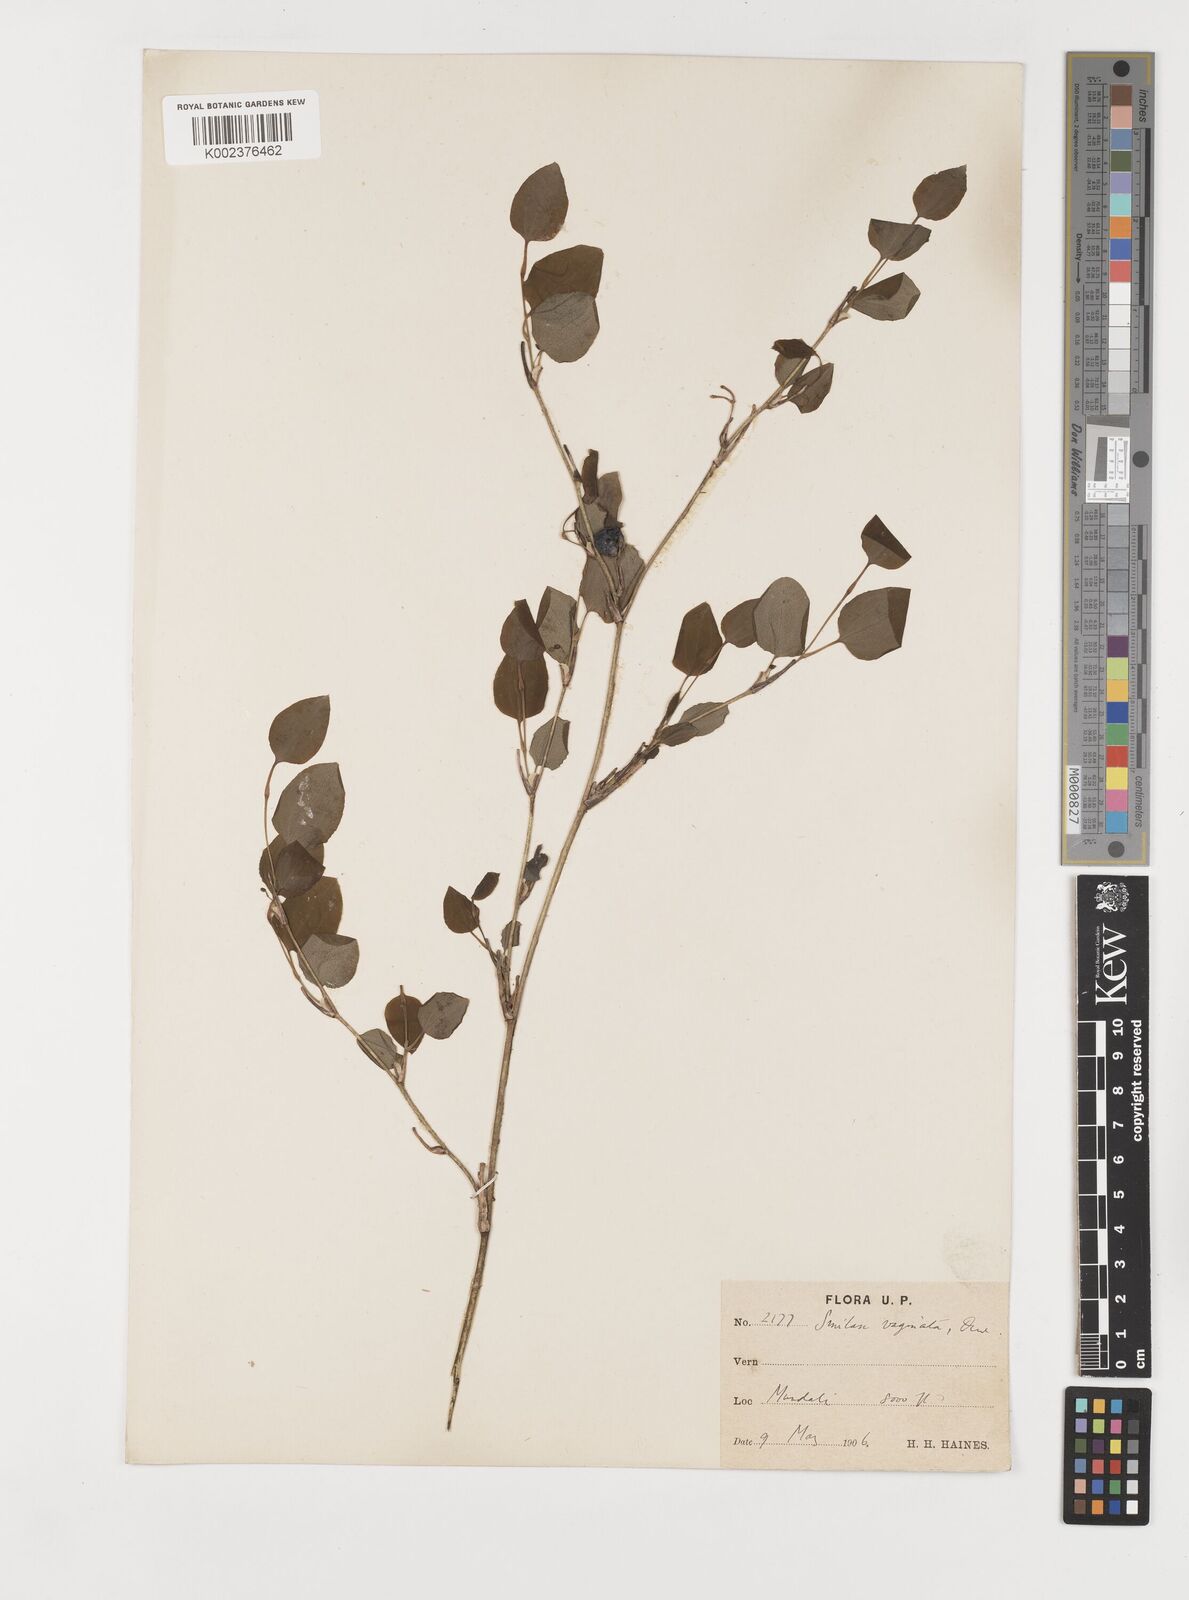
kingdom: Plantae
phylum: Tracheophyta
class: Liliopsida
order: Liliales
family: Smilacaceae
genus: Smilax
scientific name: Smilax vaginata
